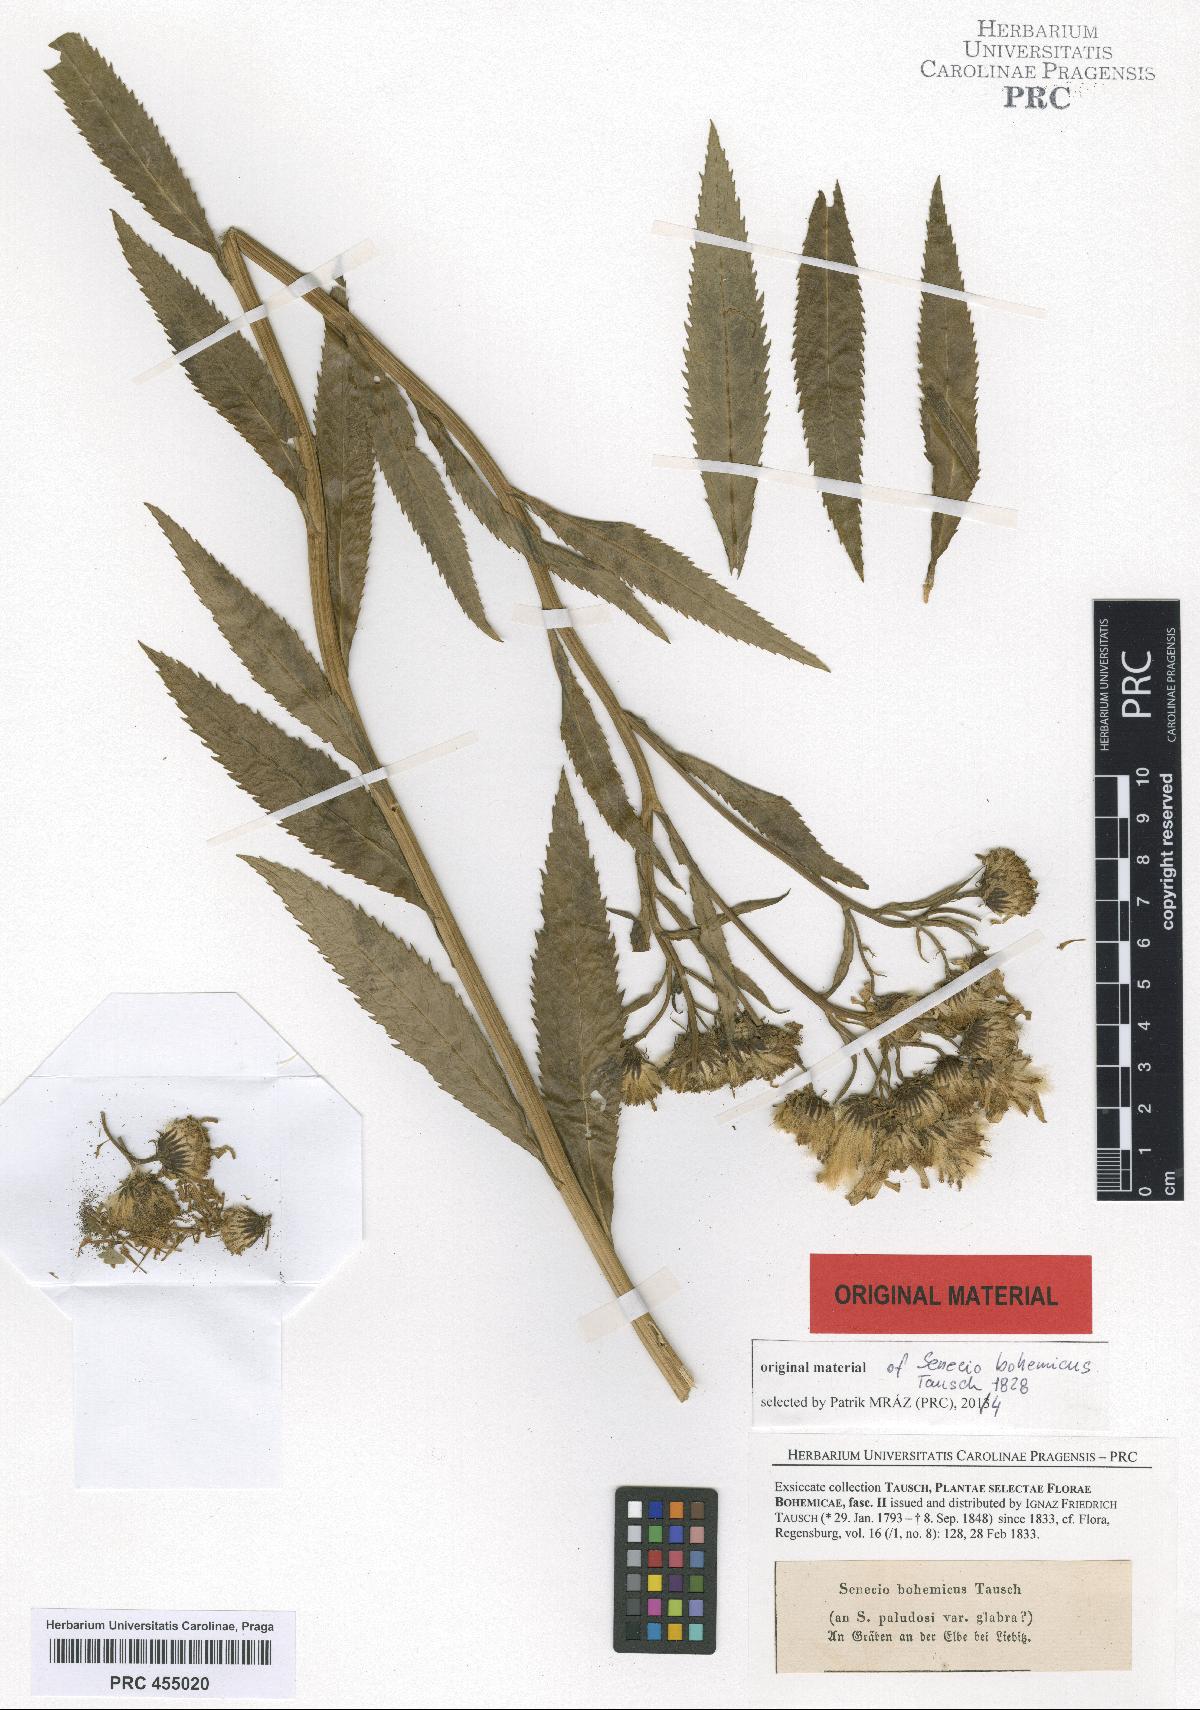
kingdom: Plantae
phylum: Tracheophyta
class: Magnoliopsida
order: Asterales
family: Asteraceae
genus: Jacobaea
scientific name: Jacobaea paludosa
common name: Fen ragwort
